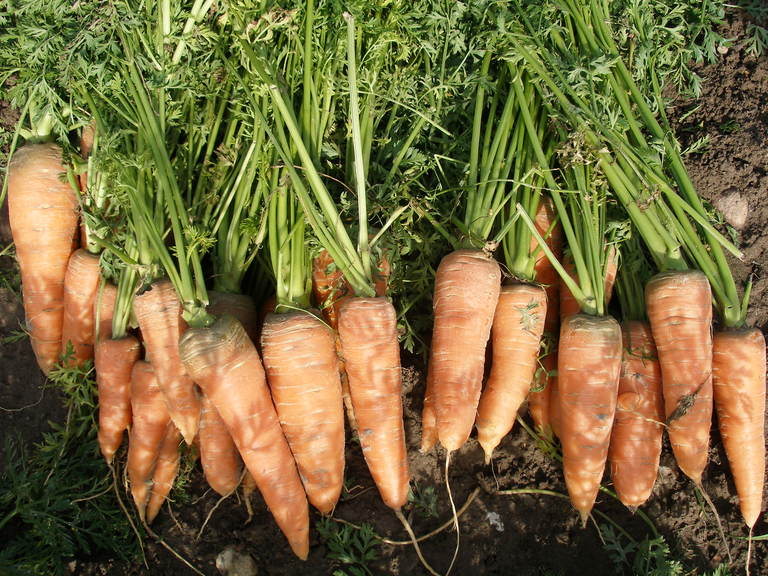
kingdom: Plantae
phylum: Tracheophyta
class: Magnoliopsida
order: Apiales
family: Apiaceae
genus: Daucus
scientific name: Daucus carota
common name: Wild carrot
